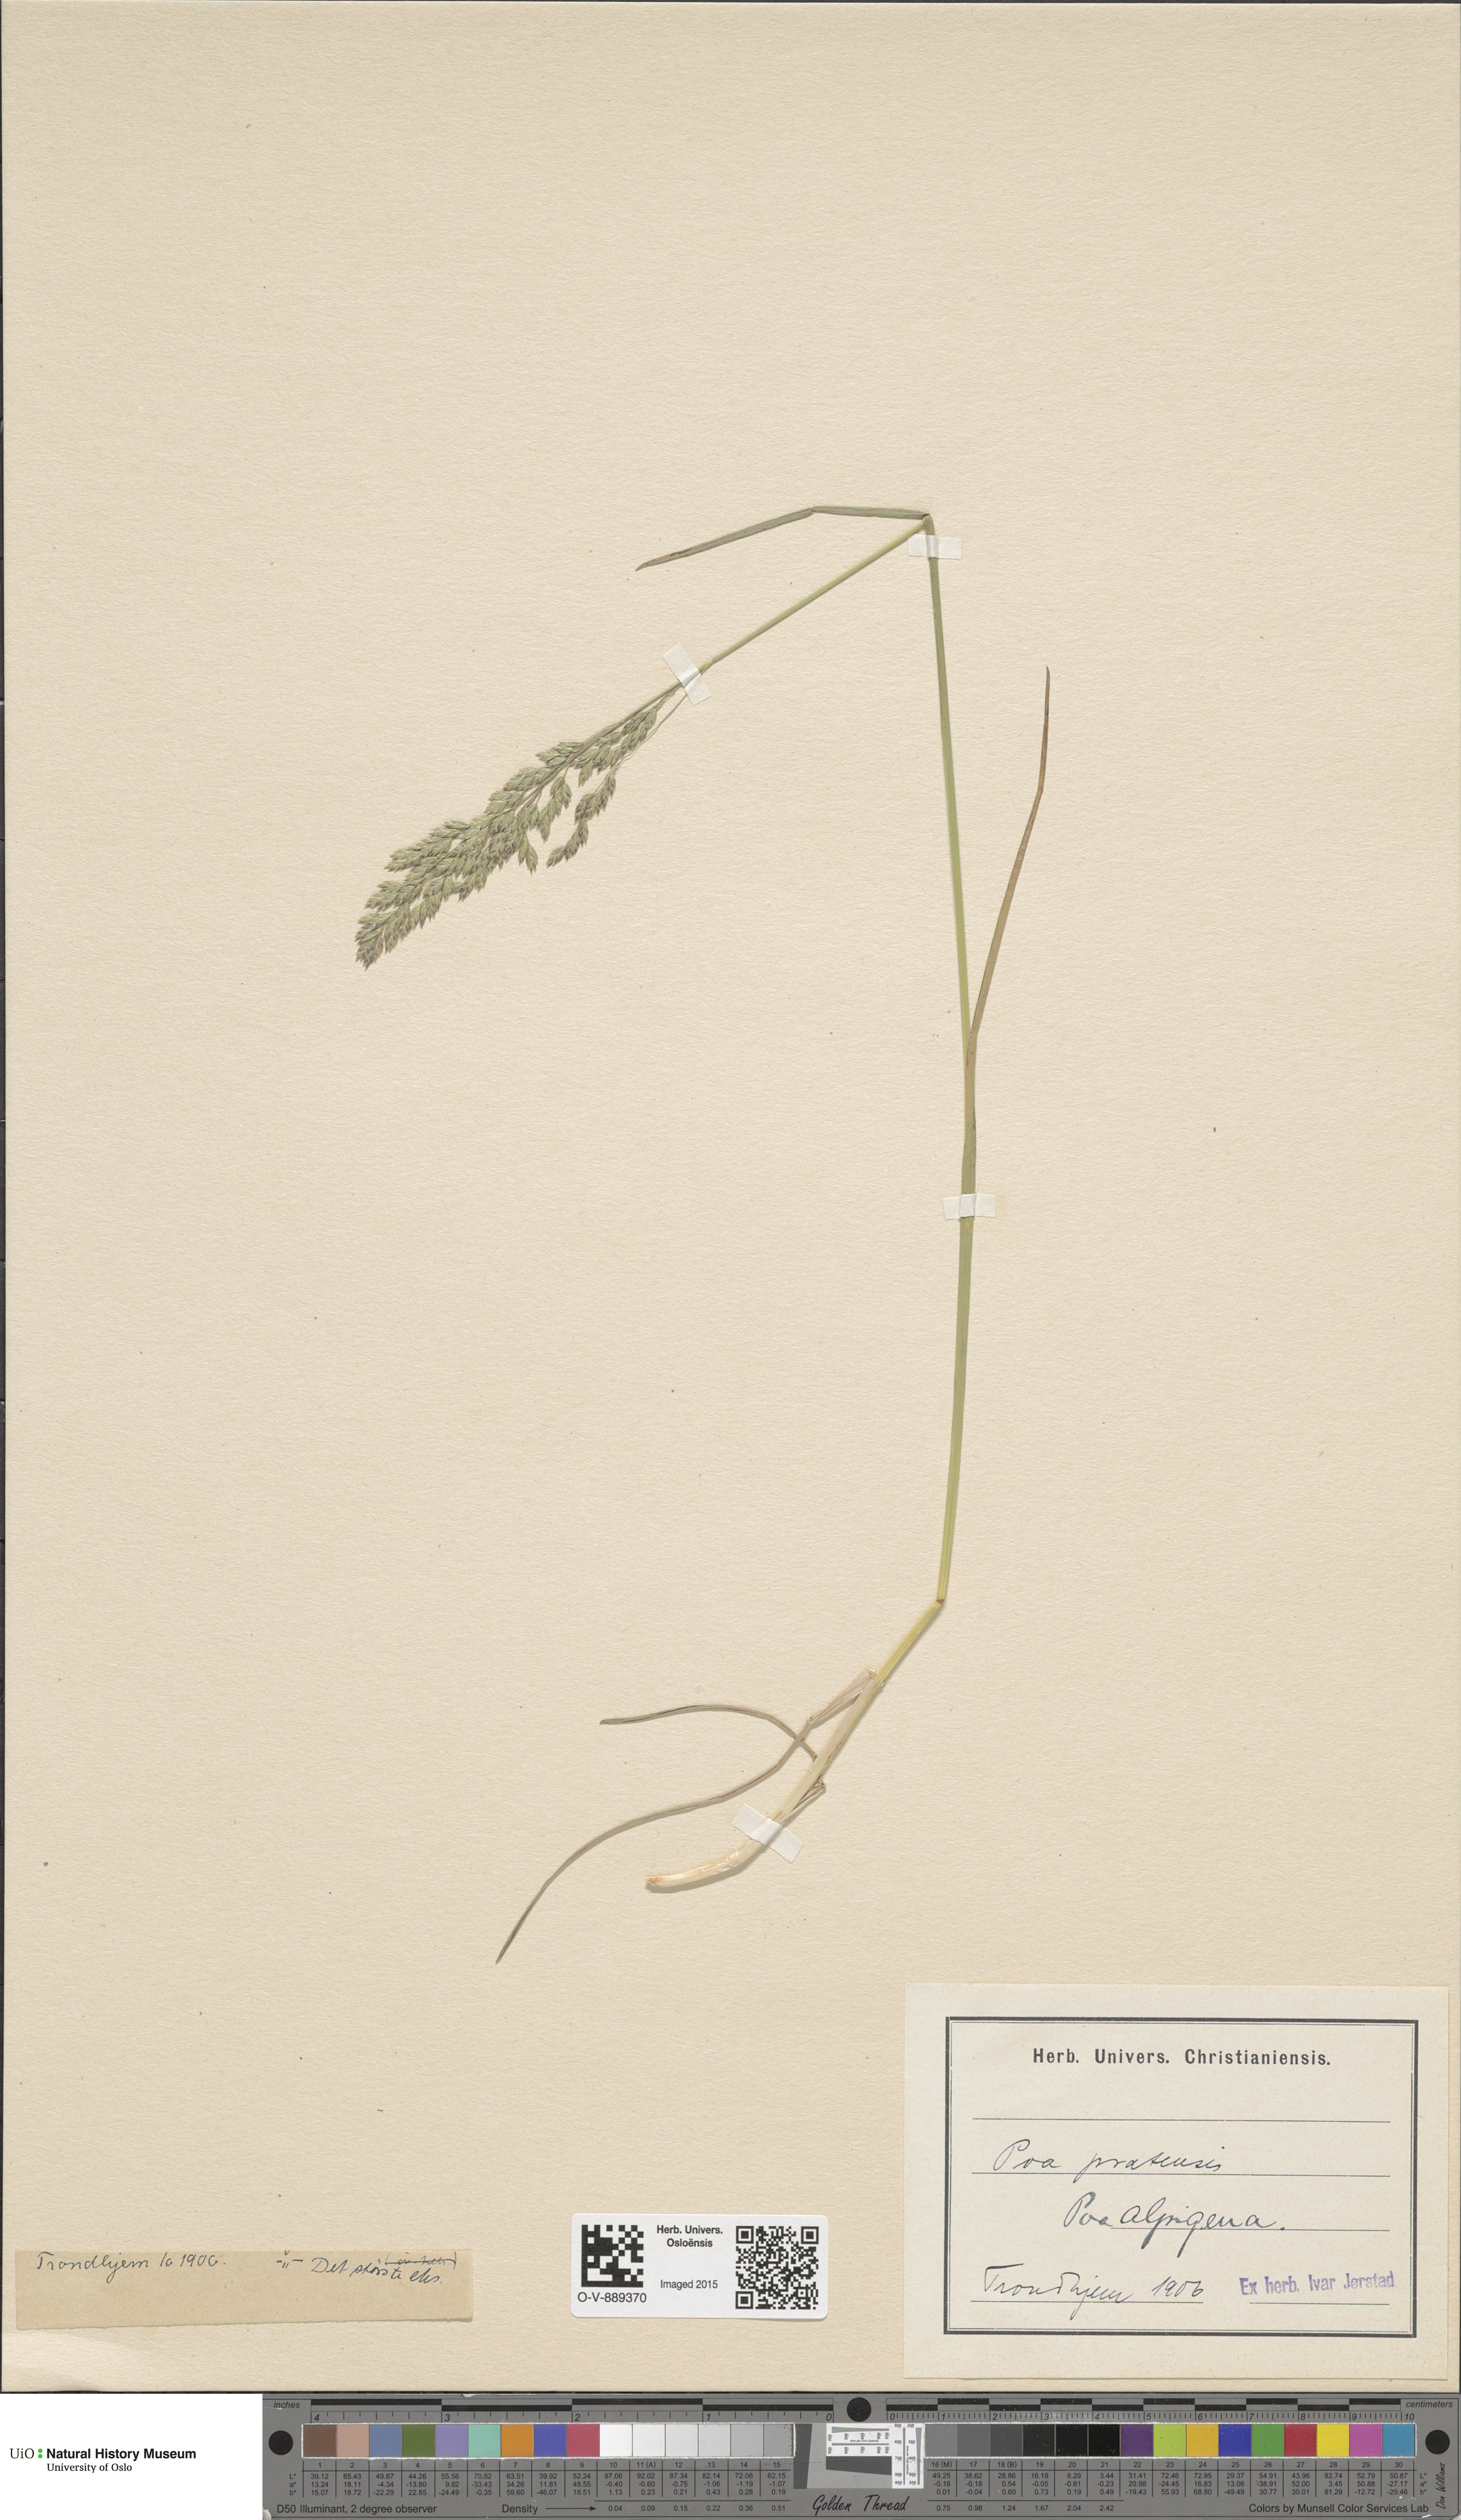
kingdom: Plantae
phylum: Tracheophyta
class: Liliopsida
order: Poales
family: Poaceae
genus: Poa
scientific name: Poa alpigena
